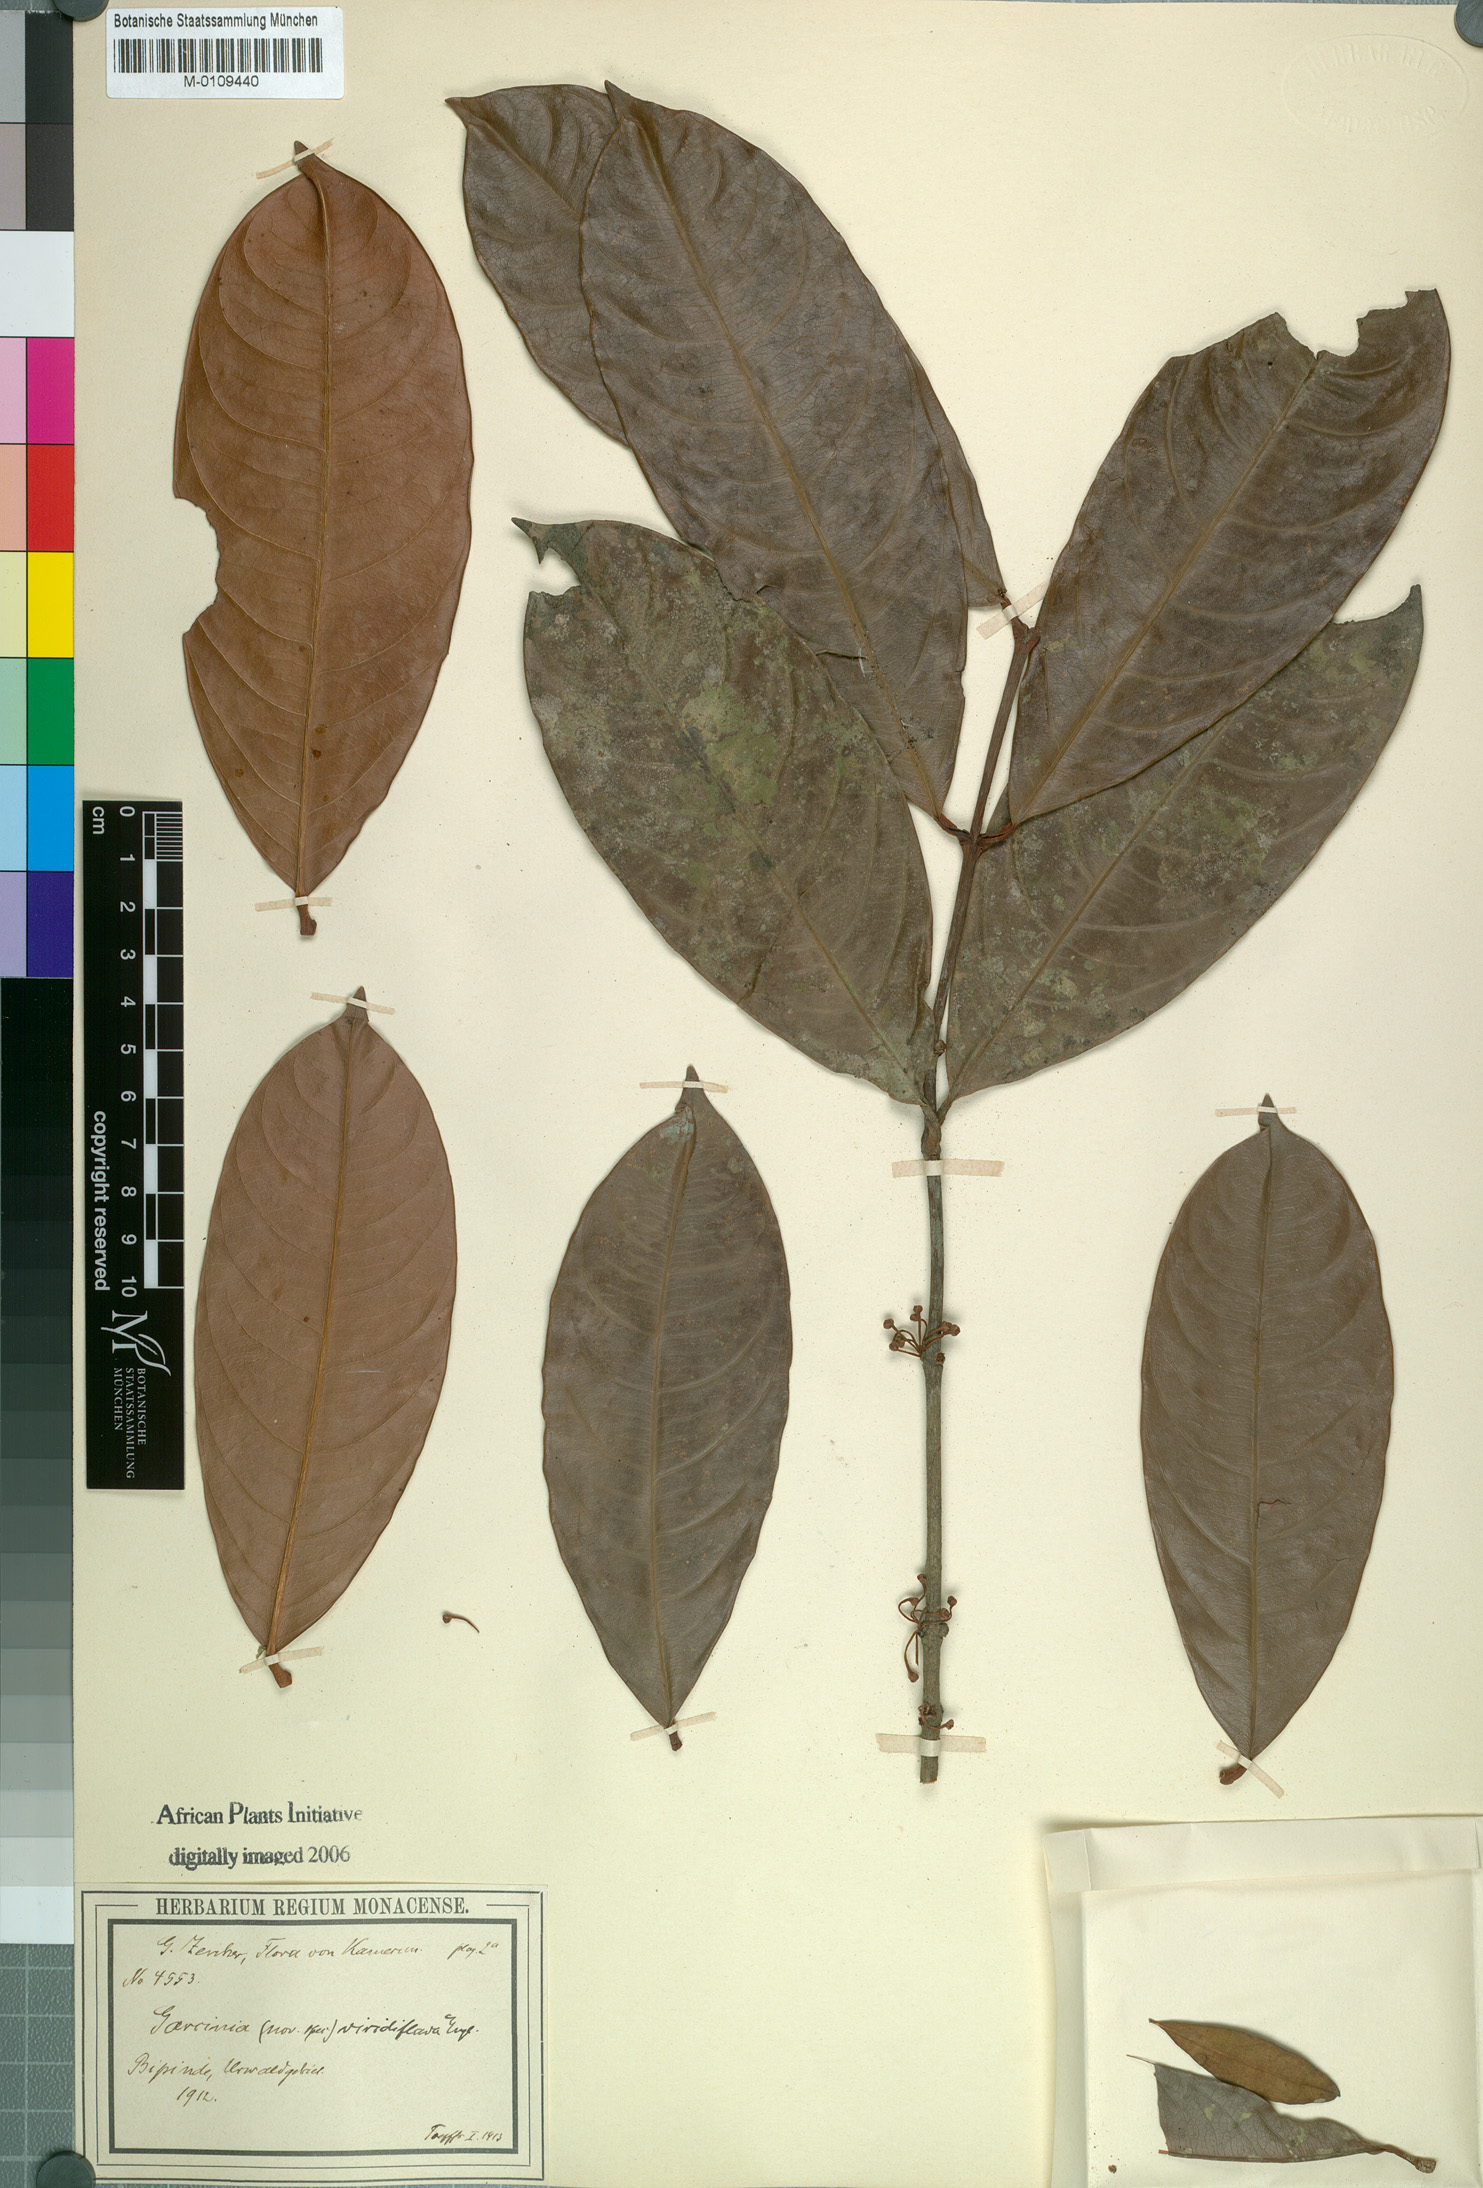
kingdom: Plantae
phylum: Tracheophyta
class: Magnoliopsida
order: Malpighiales
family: Clusiaceae
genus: Garcinia
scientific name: Garcinia smeathmannii
